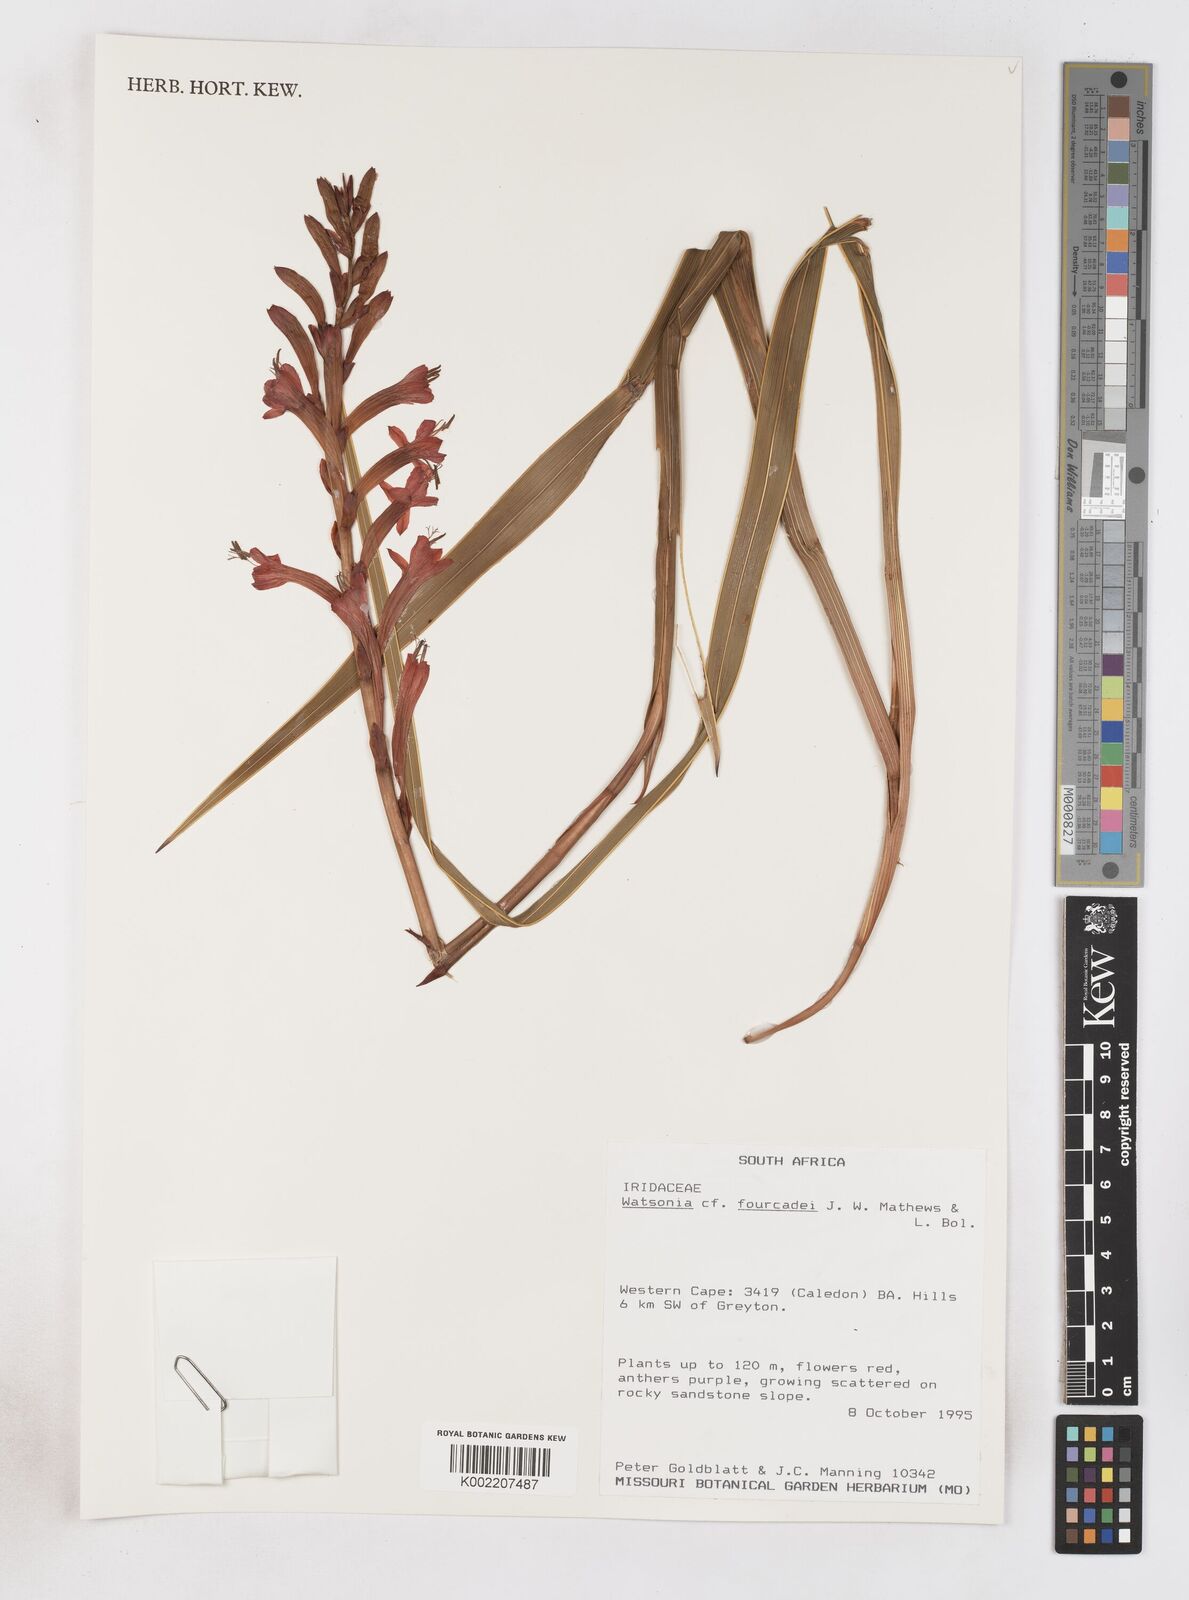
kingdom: Plantae
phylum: Tracheophyta
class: Liliopsida
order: Asparagales
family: Iridaceae
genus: Watsonia
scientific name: Watsonia fourcadei
